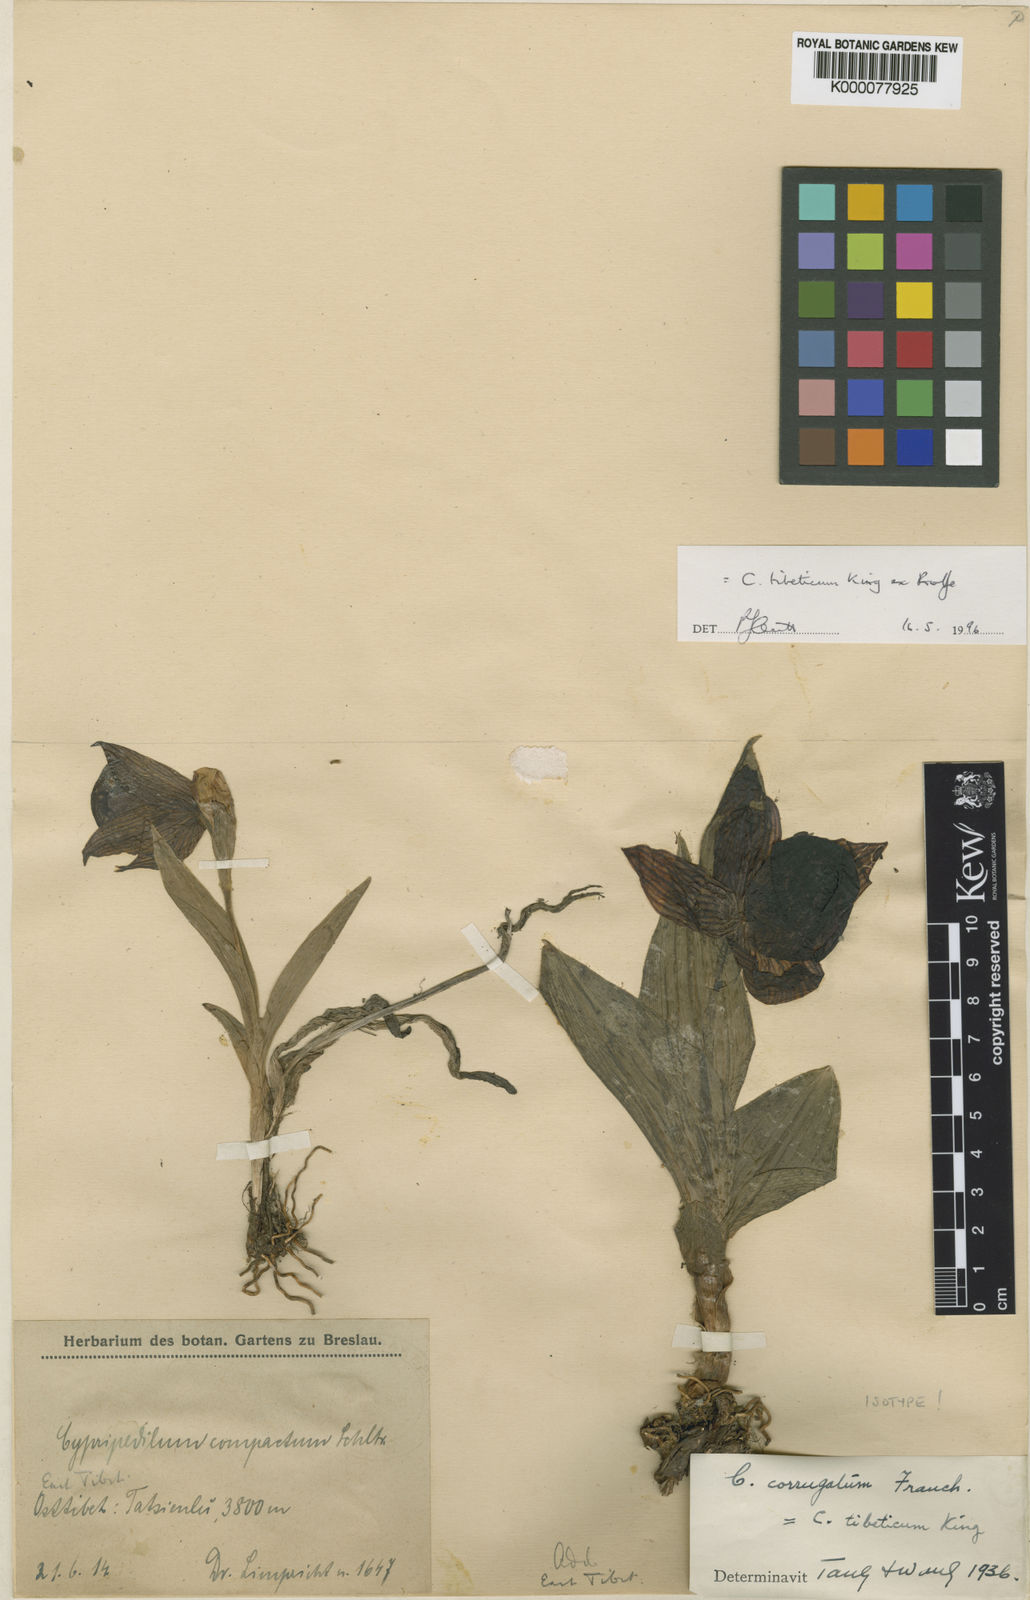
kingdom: Plantae
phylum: Tracheophyta
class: Liliopsida
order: Asparagales
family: Orchidaceae
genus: Cypripedium
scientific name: Cypripedium tibeticum
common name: Tibetan cypripedium
